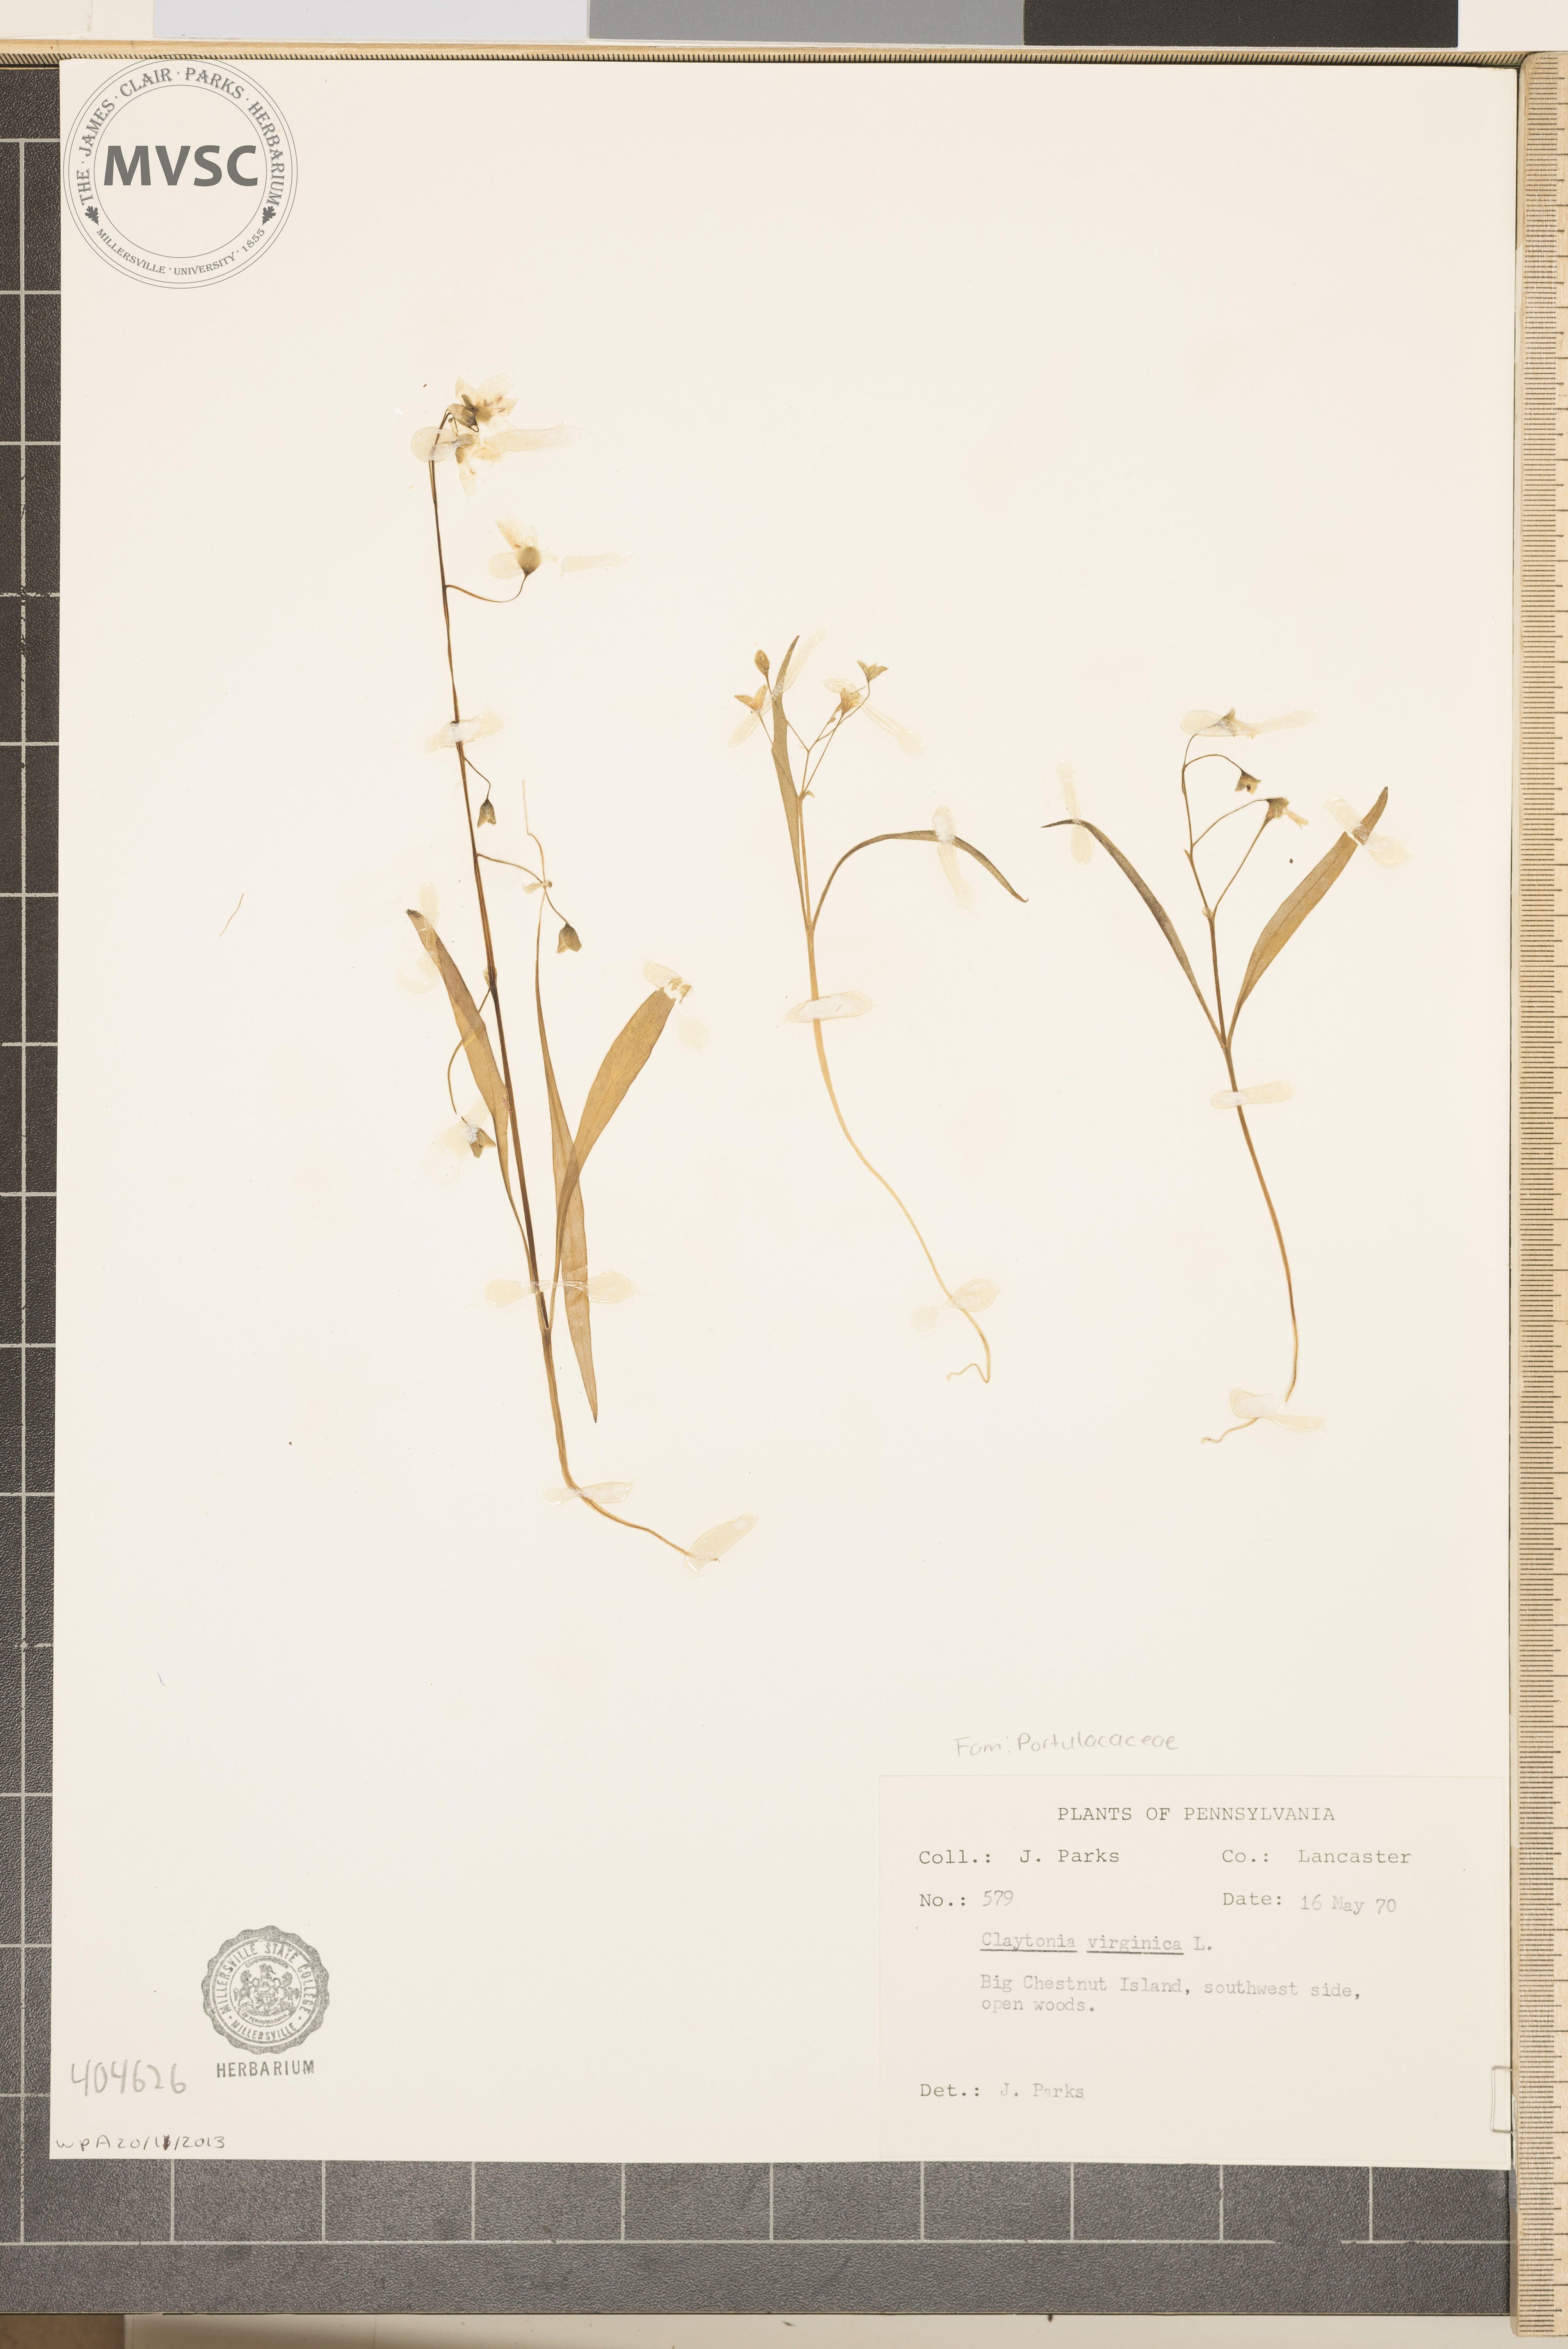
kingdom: Plantae
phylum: Tracheophyta
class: Magnoliopsida
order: Caryophyllales
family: Montiaceae
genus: Claytonia
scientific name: Claytonia virginica
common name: Virginia springbeauty
